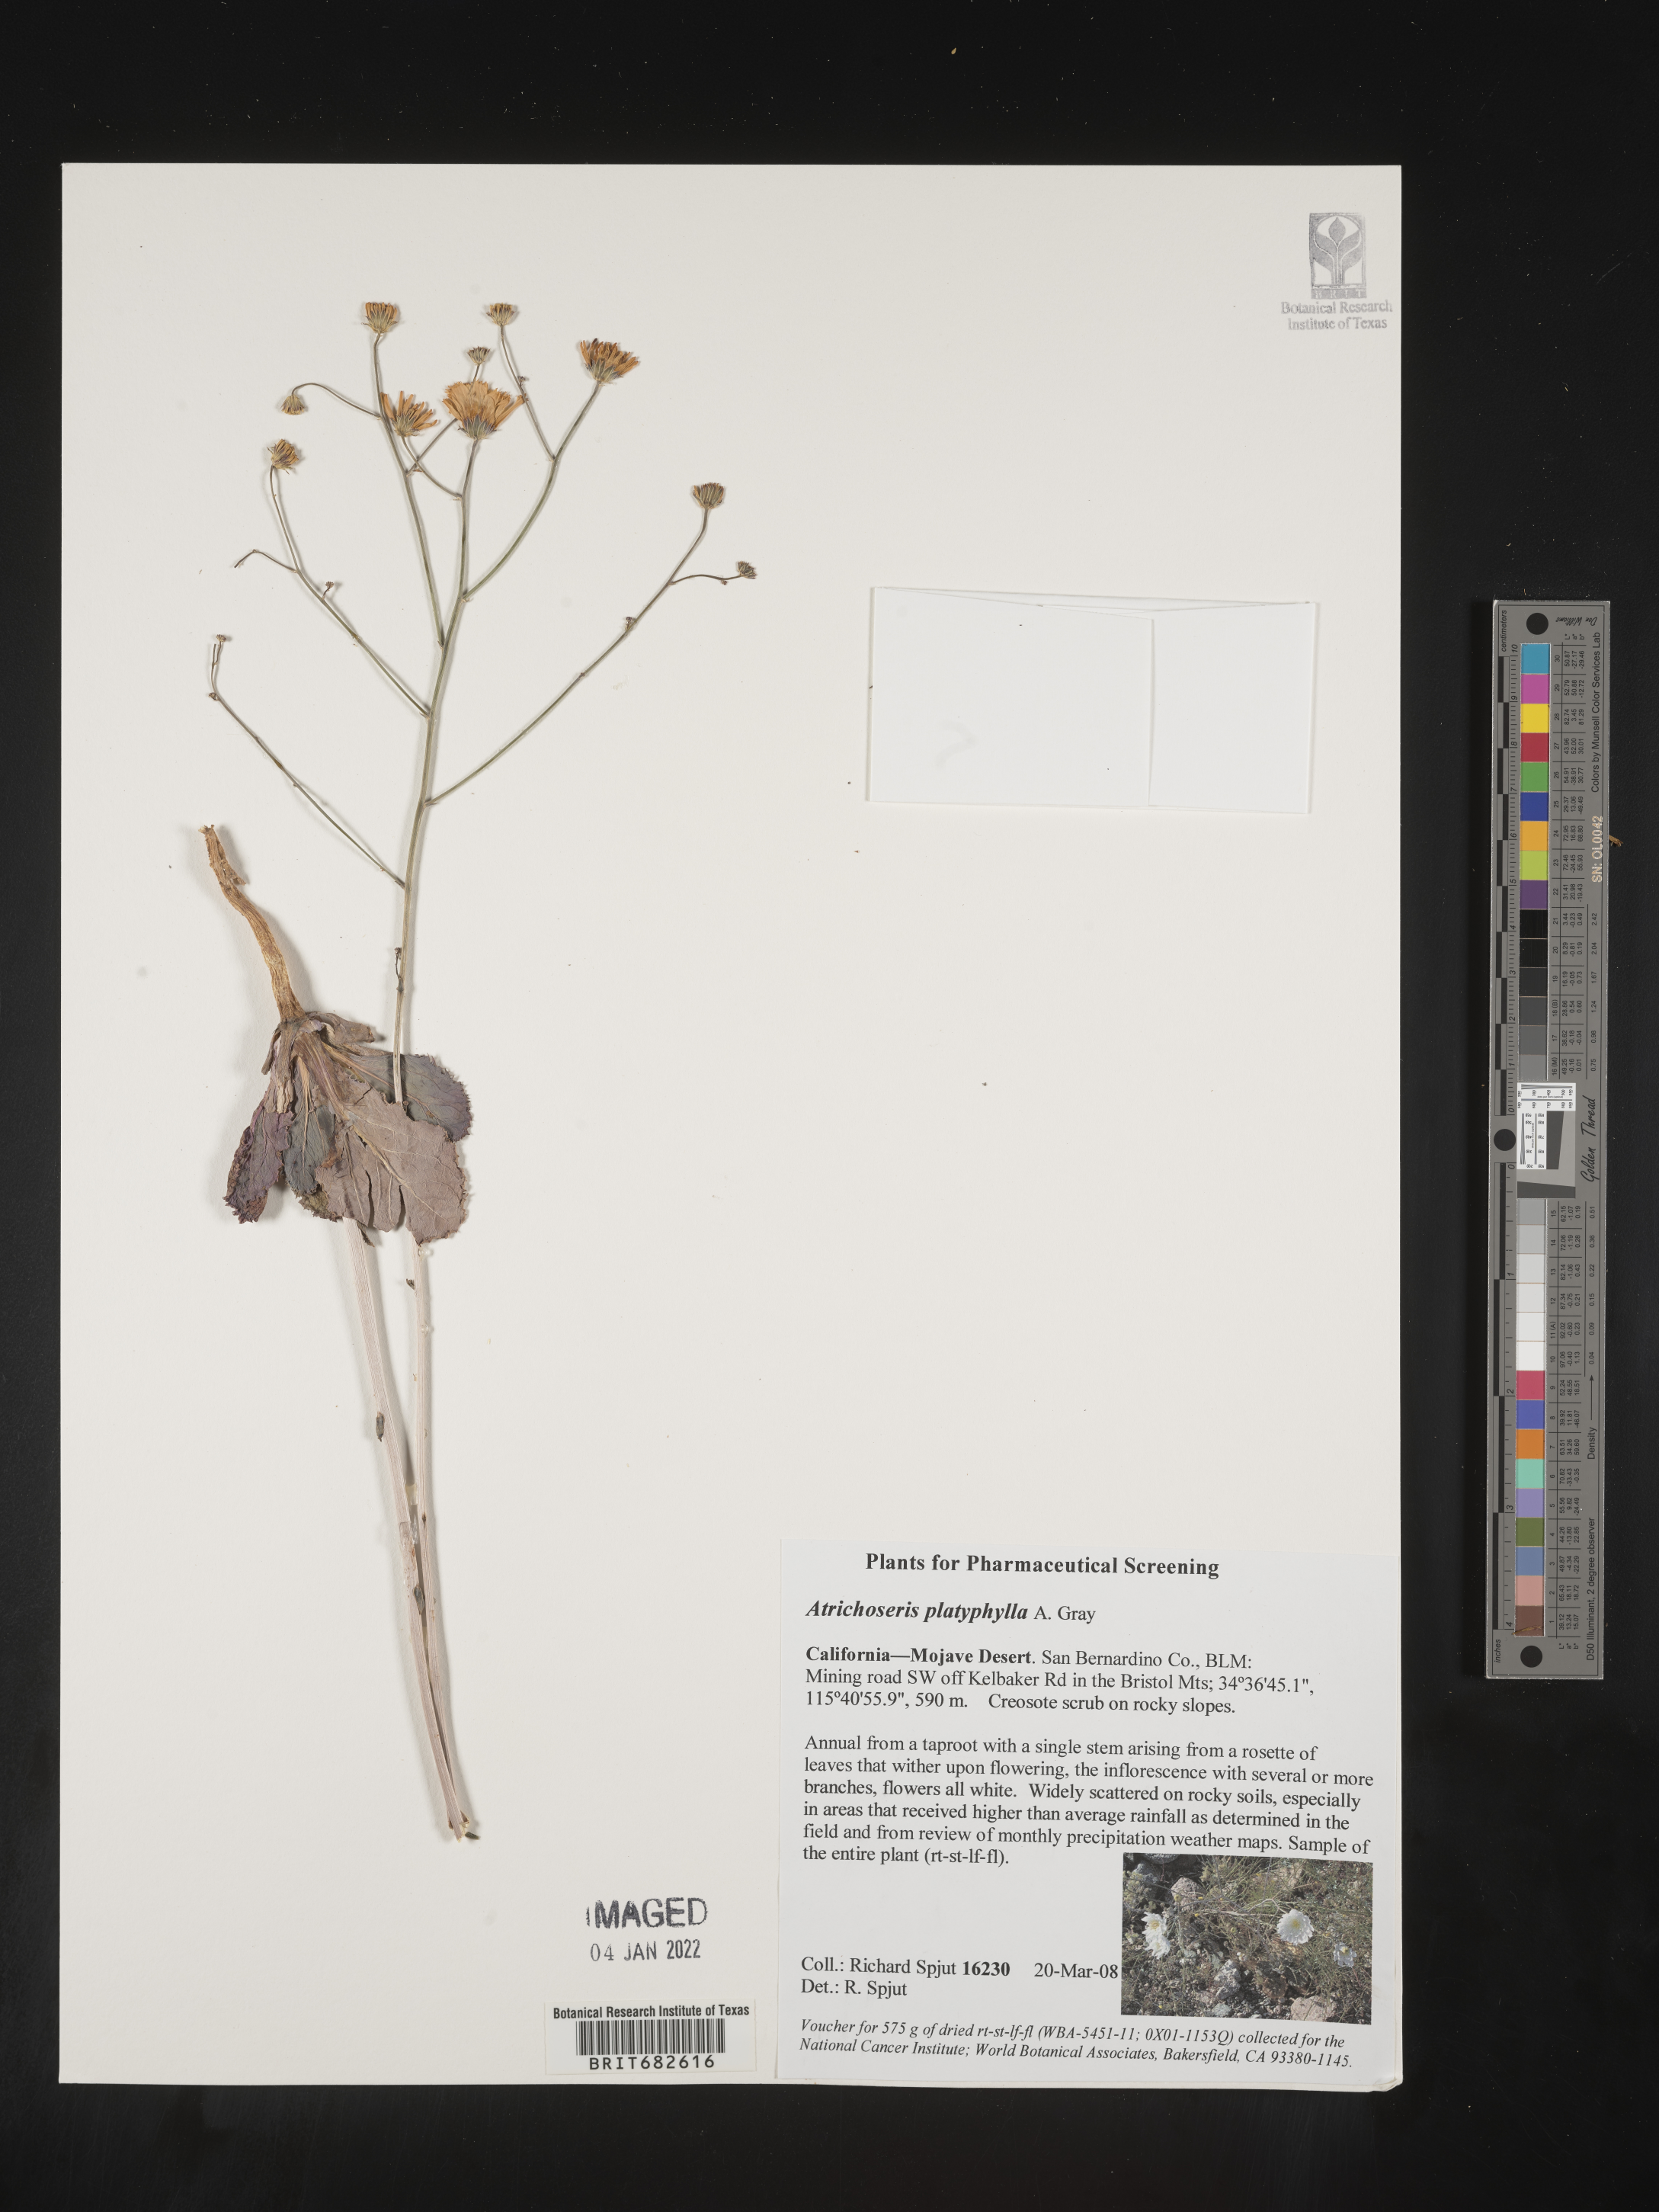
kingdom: Plantae
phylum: Tracheophyta
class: Magnoliopsida
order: Asterales
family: Asteraceae
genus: Atrichoseris
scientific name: Atrichoseris
